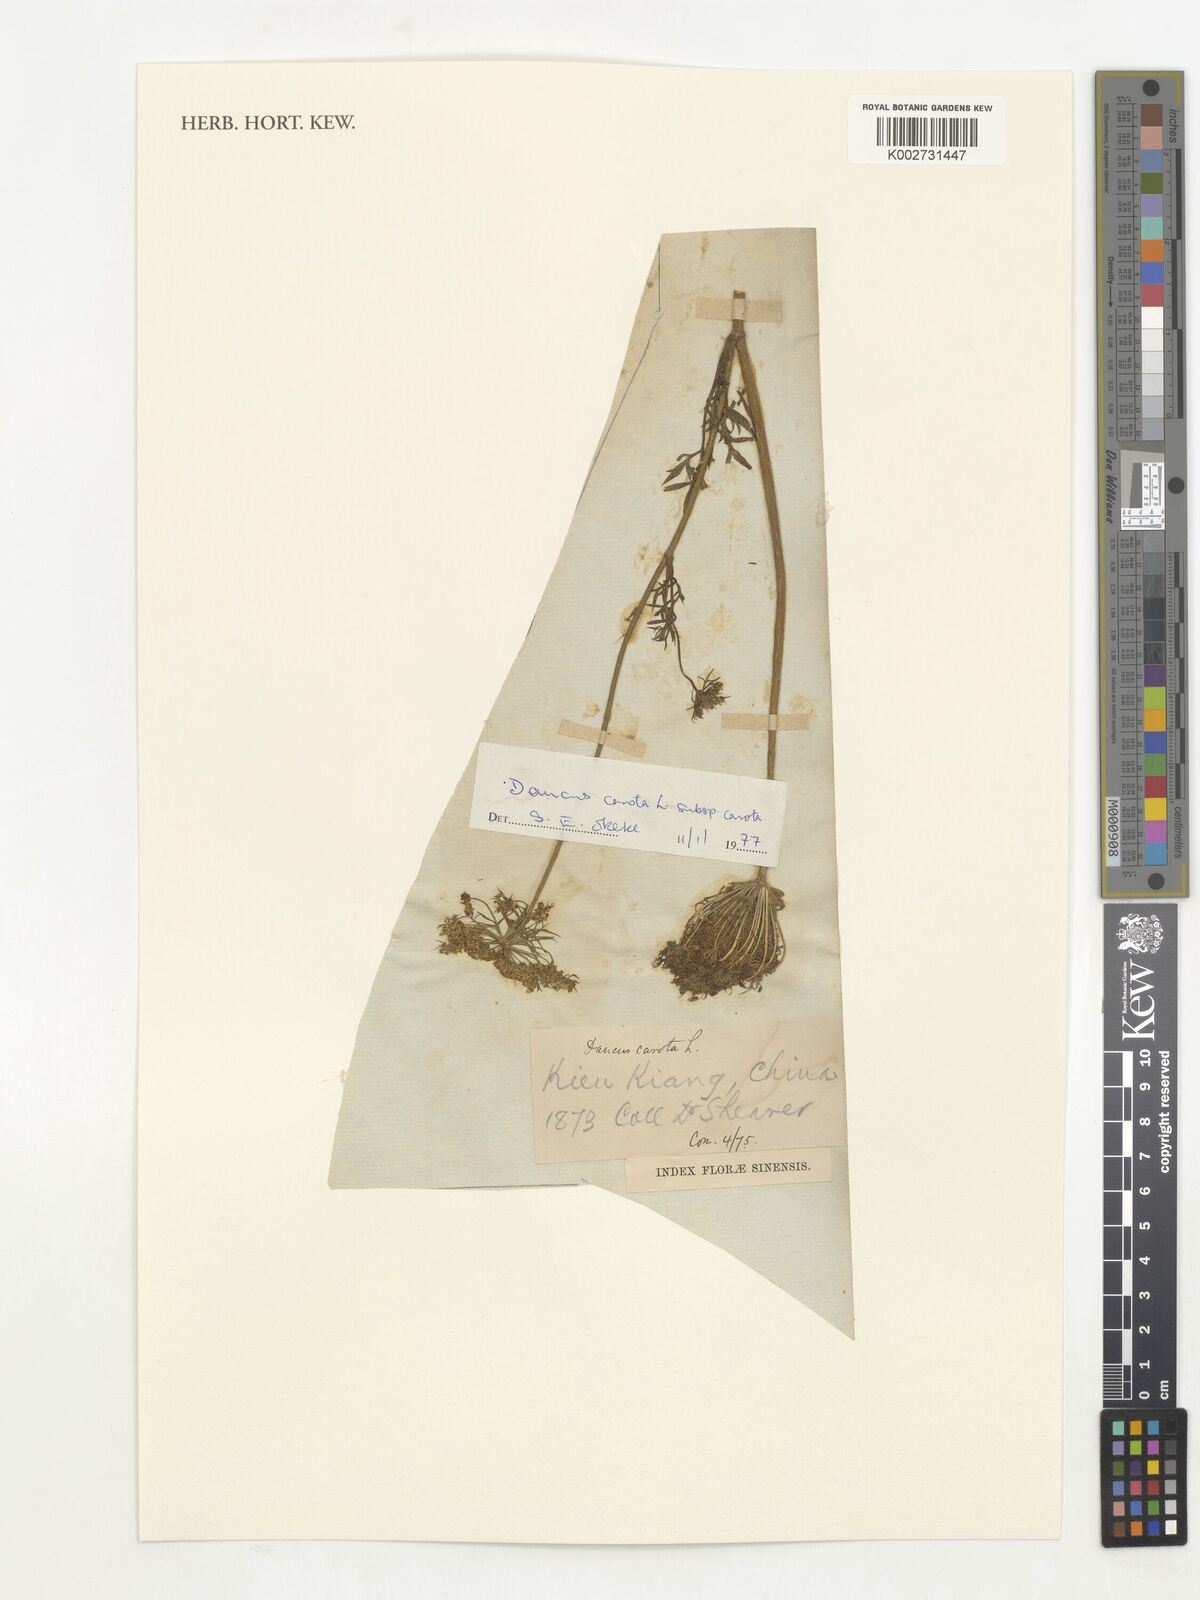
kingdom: Plantae
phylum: Tracheophyta
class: Magnoliopsida
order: Apiales
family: Apiaceae
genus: Daucus
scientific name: Daucus carota
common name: Wild carrot
